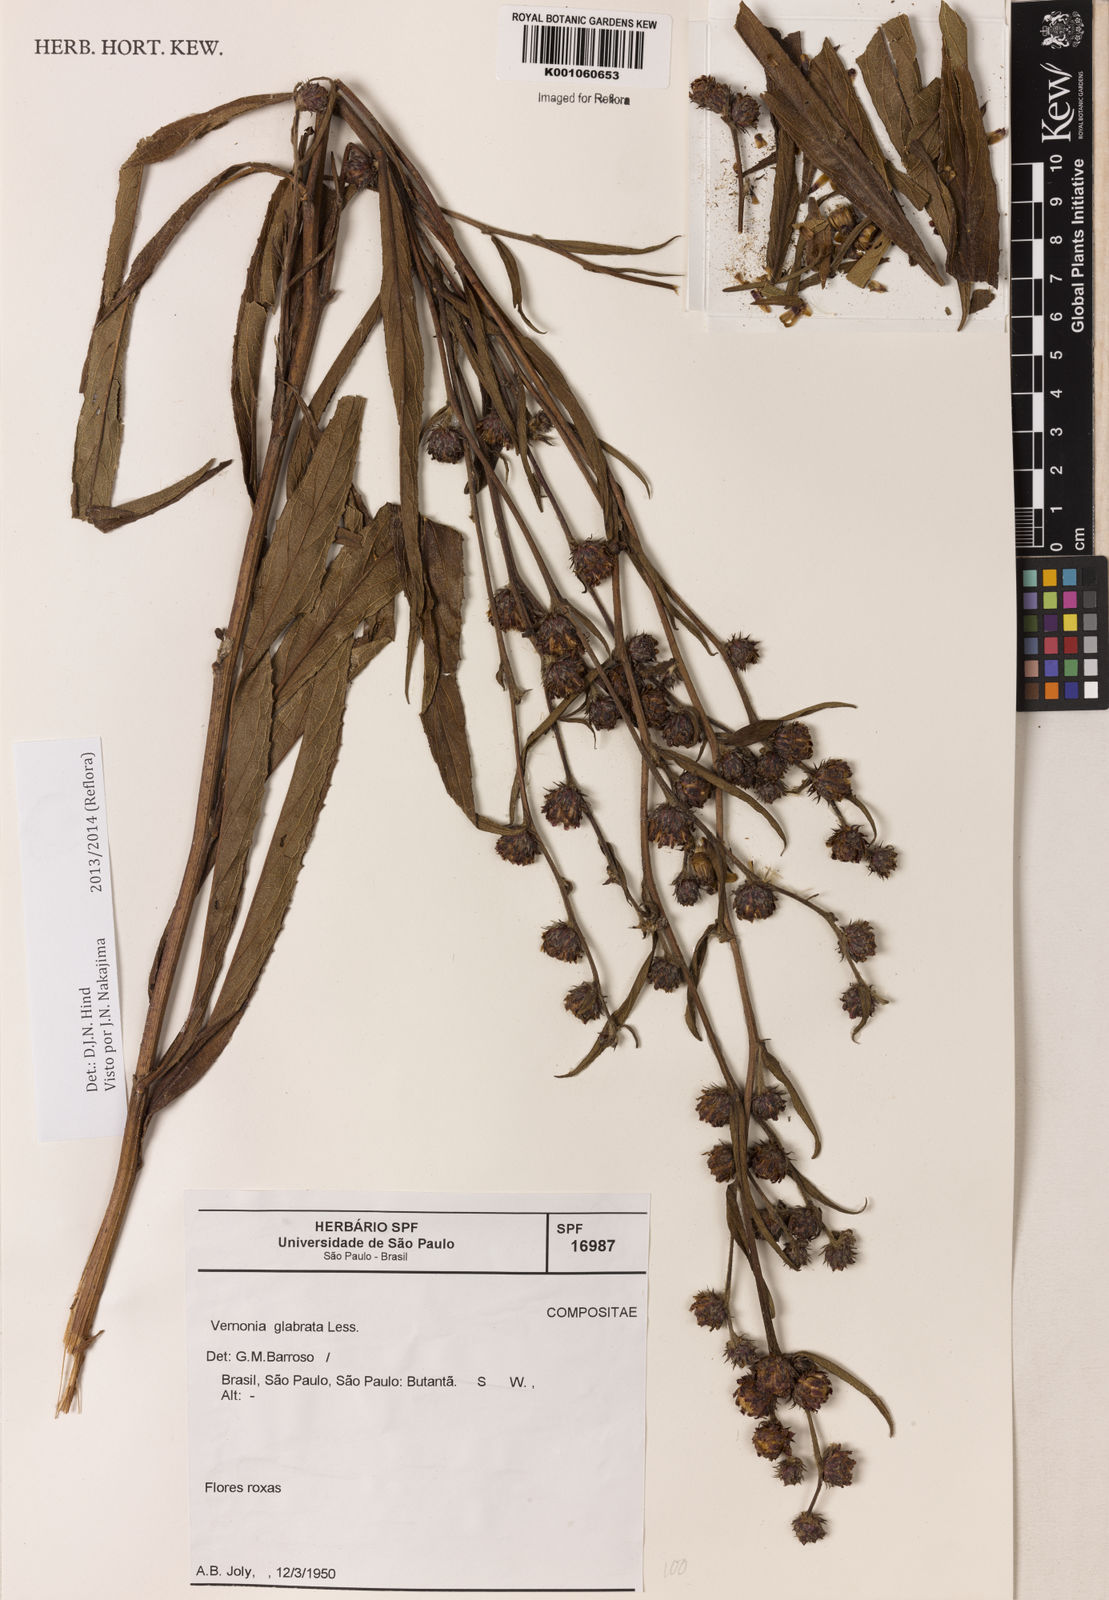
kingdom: Plantae
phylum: Tracheophyta
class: Magnoliopsida
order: Asterales
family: Asteraceae
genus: Lessingianthus
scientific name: Lessingianthus glabratus
